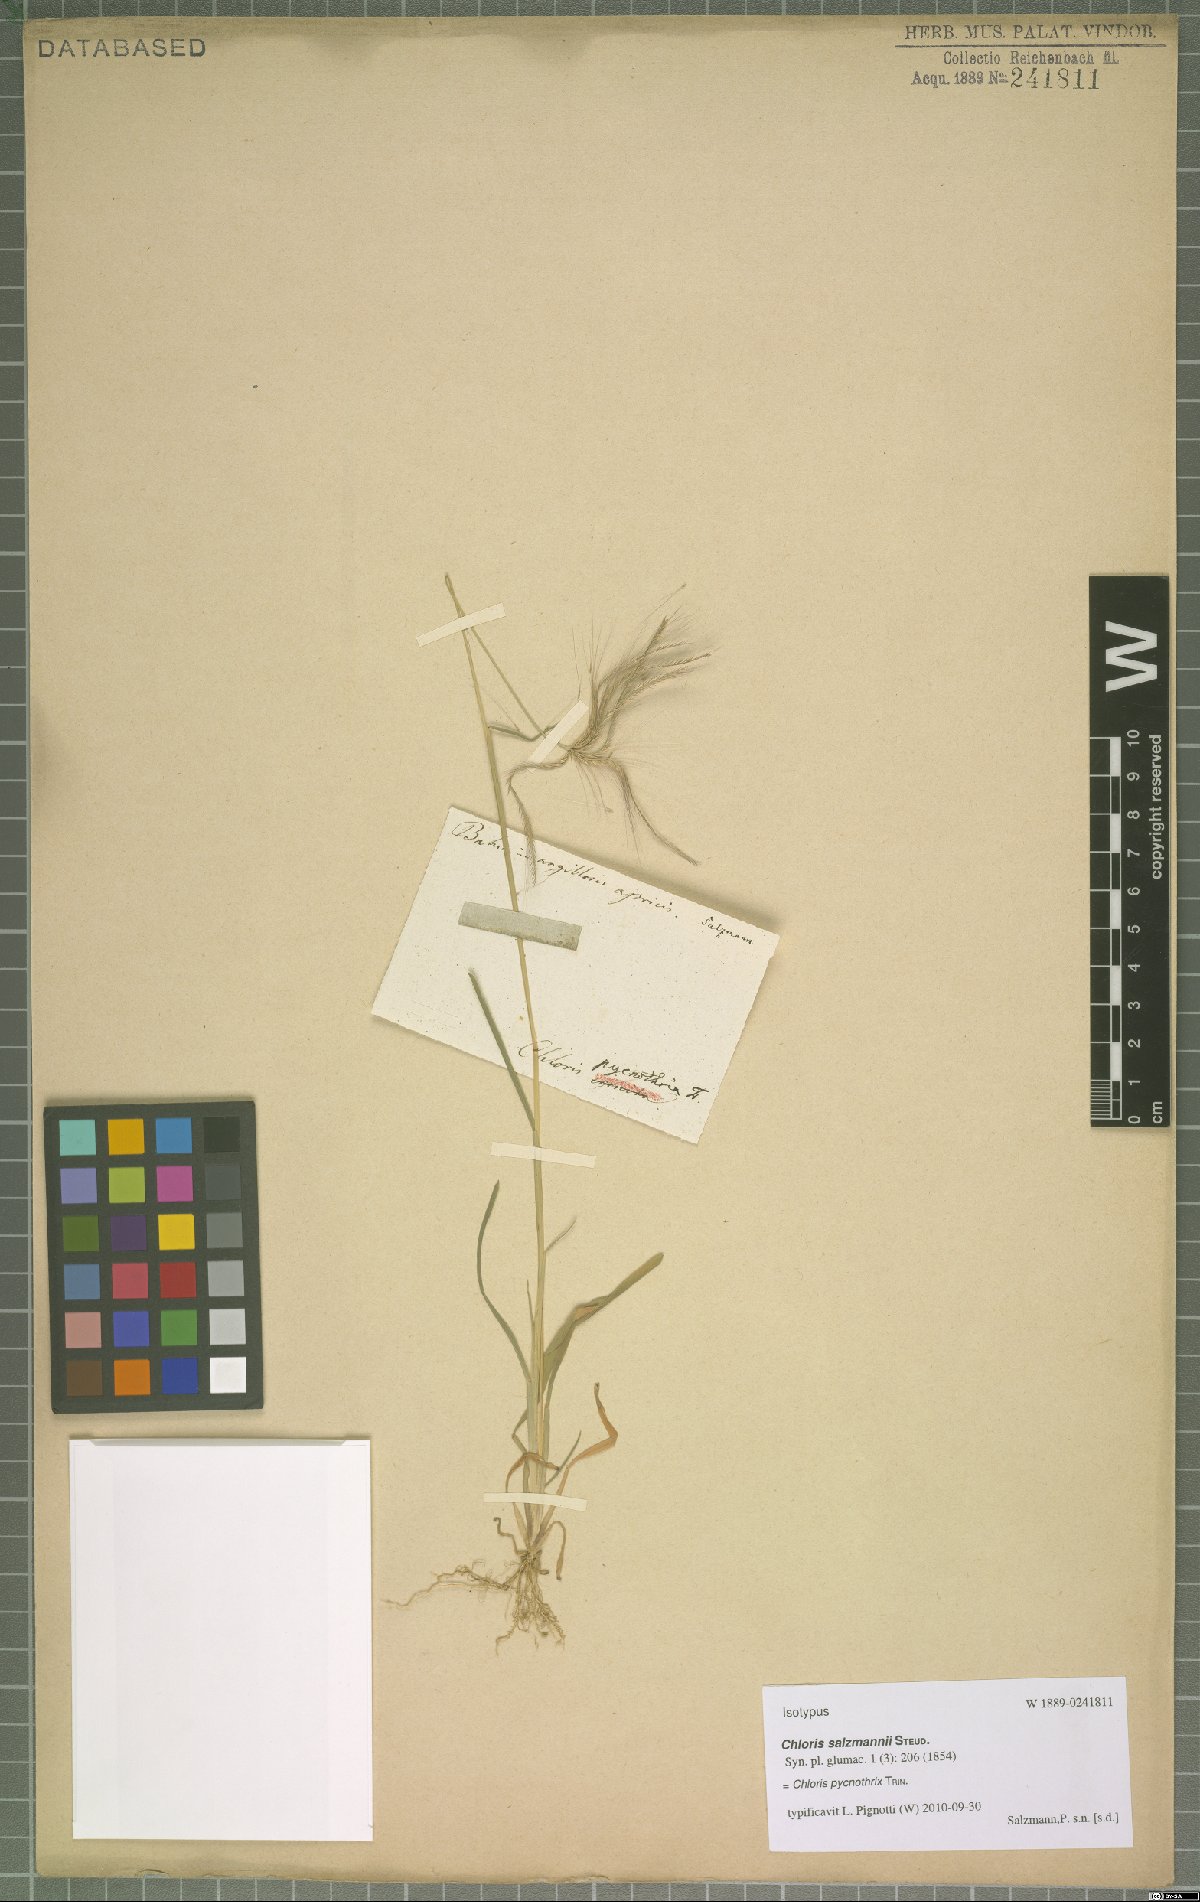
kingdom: Plantae
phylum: Tracheophyta
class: Liliopsida
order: Poales
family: Poaceae
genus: Chloris
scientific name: Chloris pycnothrix
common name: Spiderweb chloris
